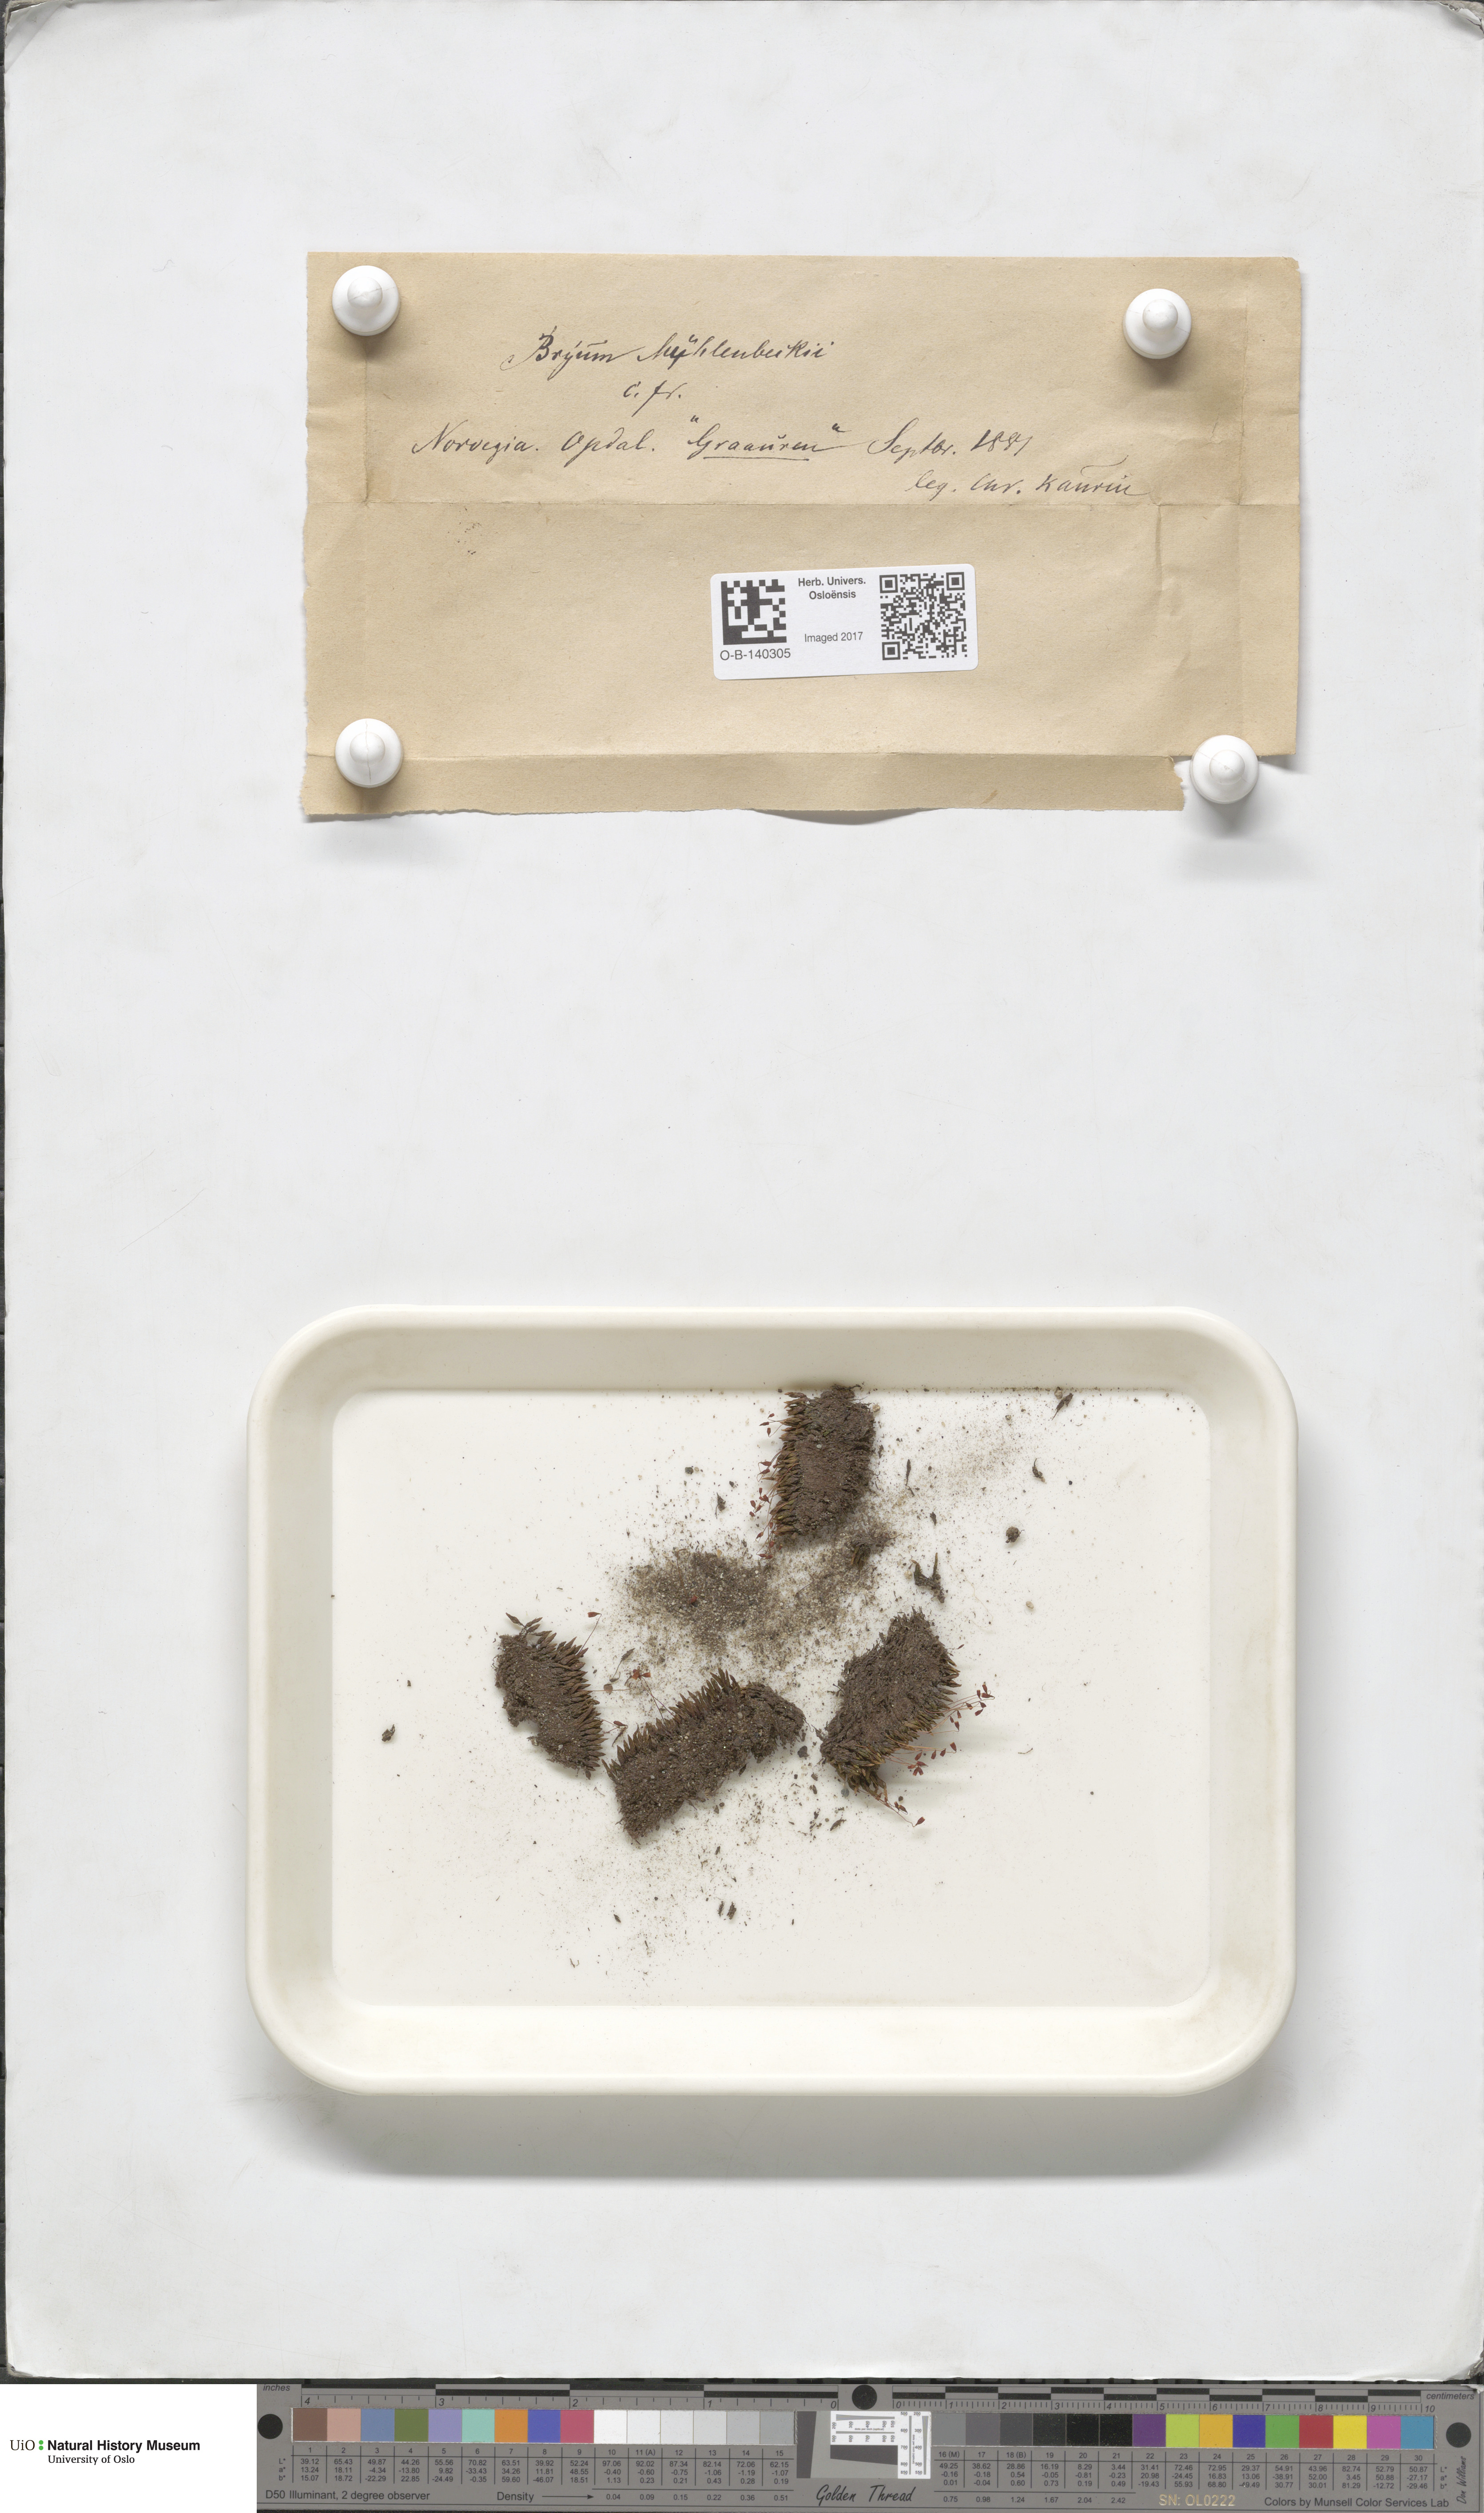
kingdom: Plantae
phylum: Bryophyta
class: Bryopsida
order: Bryales
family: Bryaceae
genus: Imbribryum
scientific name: Imbribryum muehlenbeckii
